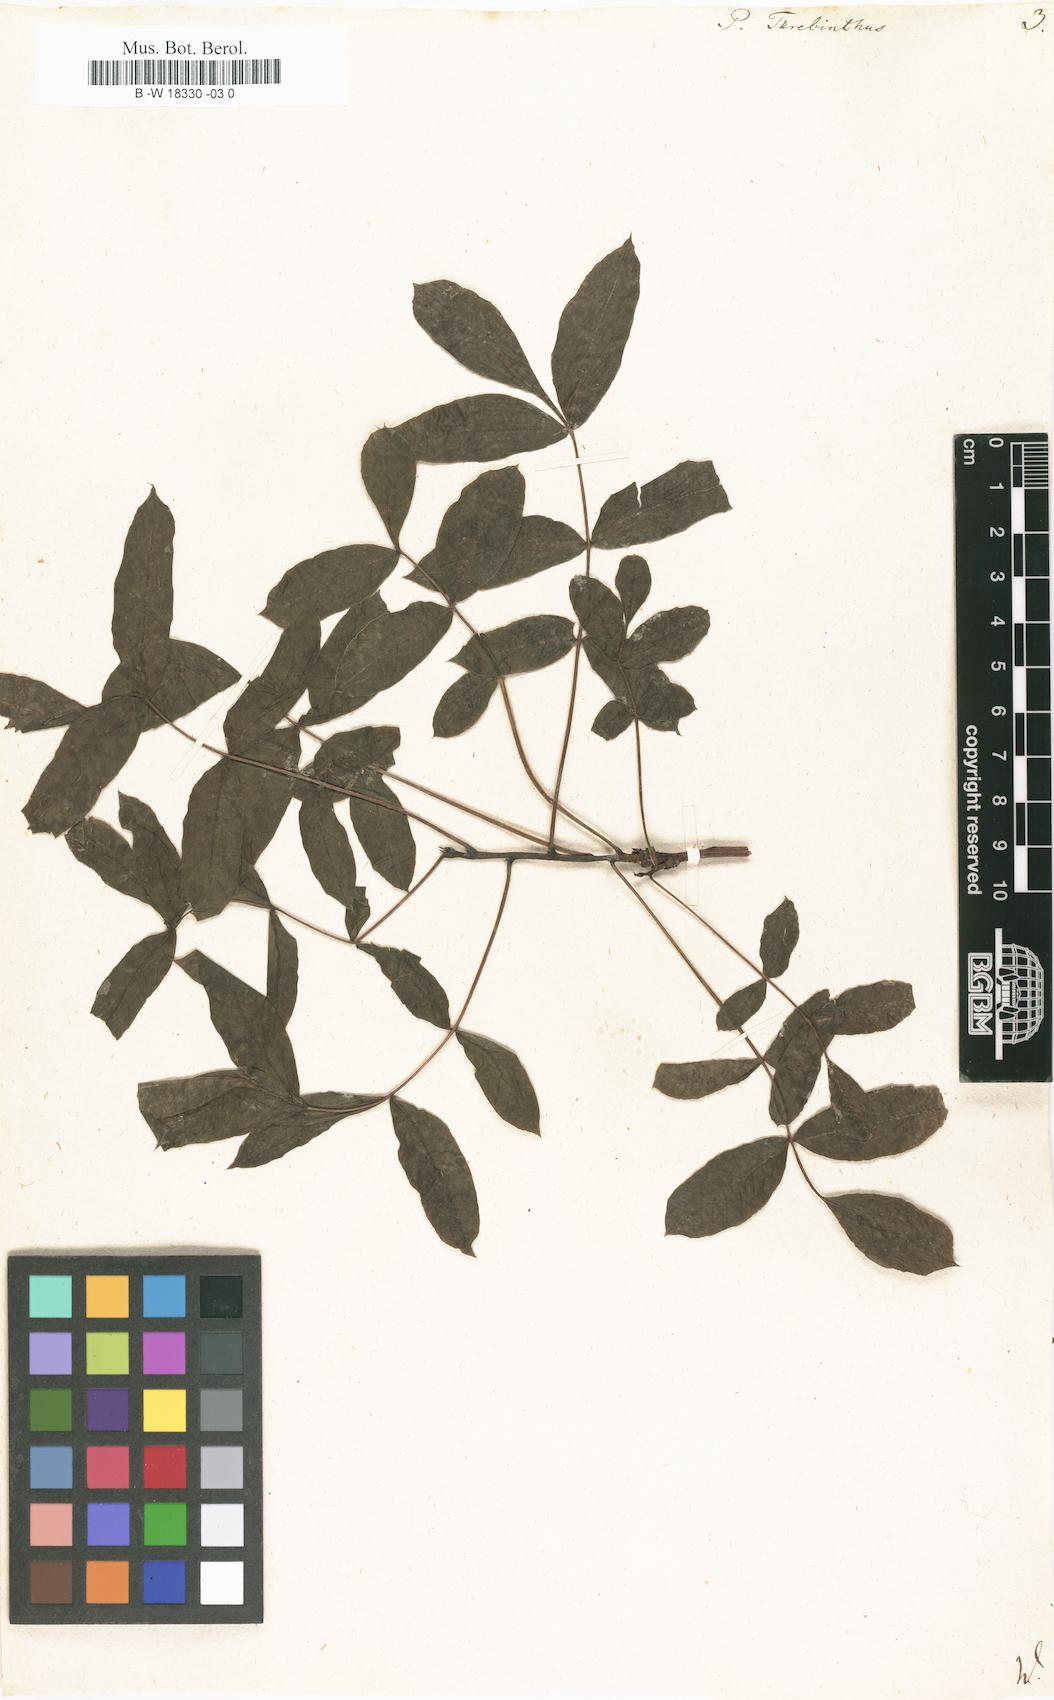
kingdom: Plantae
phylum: Tracheophyta
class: Magnoliopsida
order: Sapindales
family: Anacardiaceae
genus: Pistacia
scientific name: Pistacia terebinthus
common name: Terebinth
